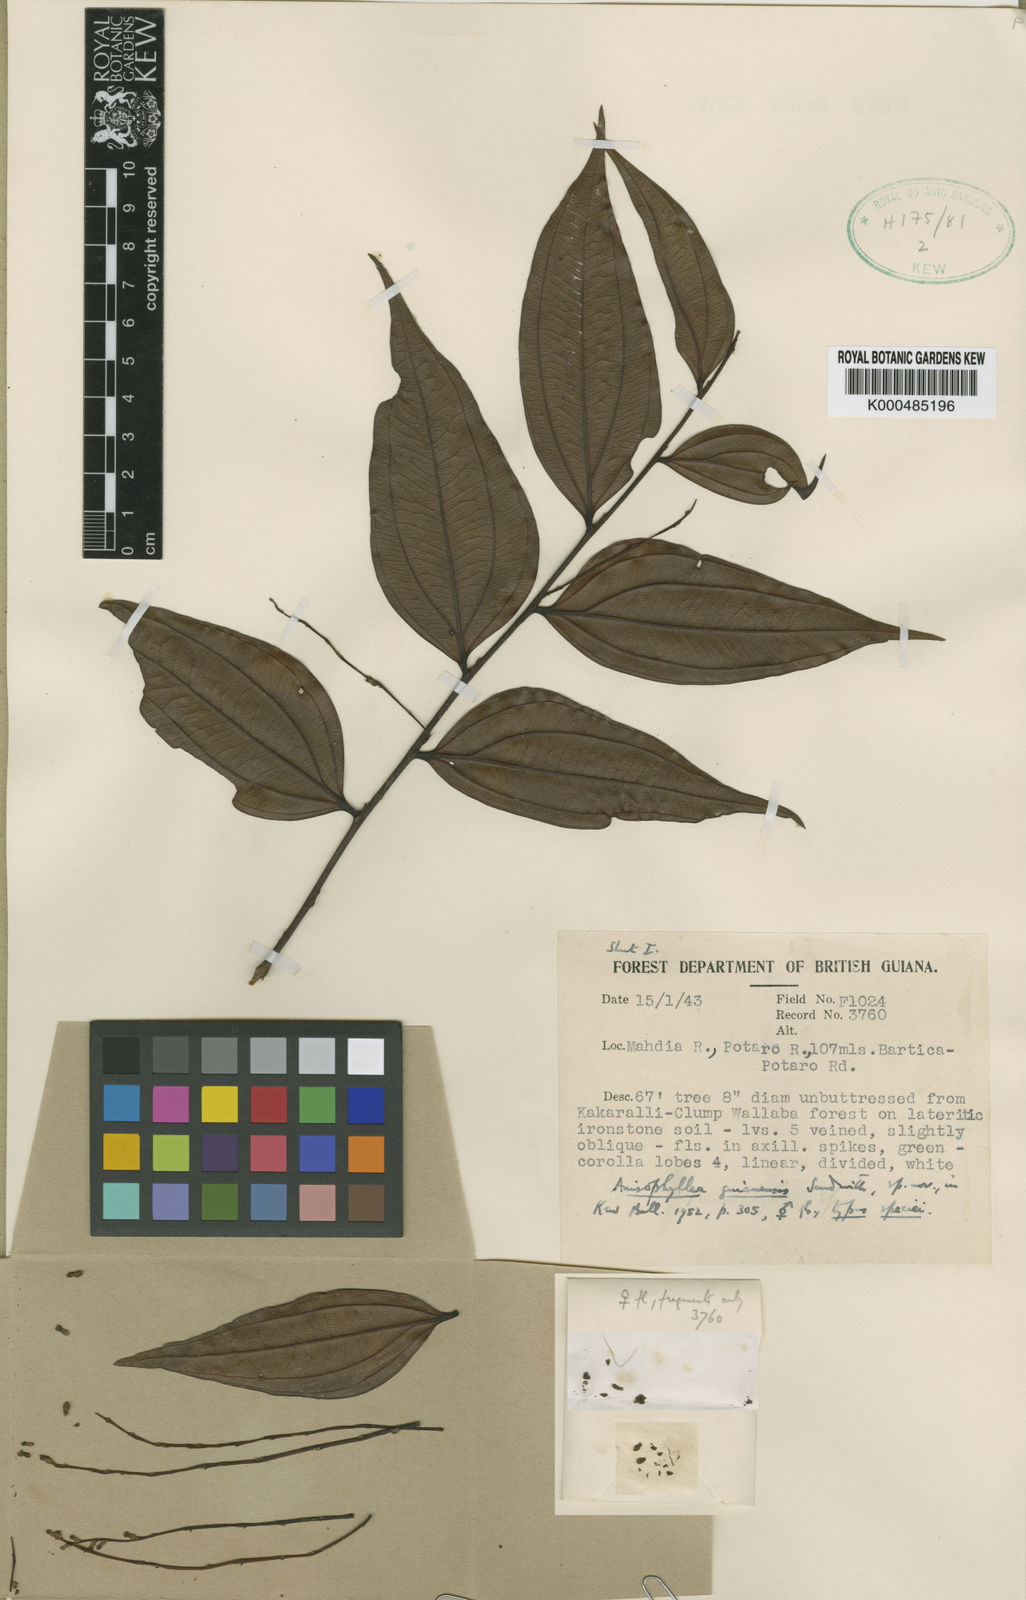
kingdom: Plantae
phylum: Tracheophyta
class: Magnoliopsida
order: Cucurbitales
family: Anisophylleaceae
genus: Anisophyllea
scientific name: Anisophyllea guianensis
